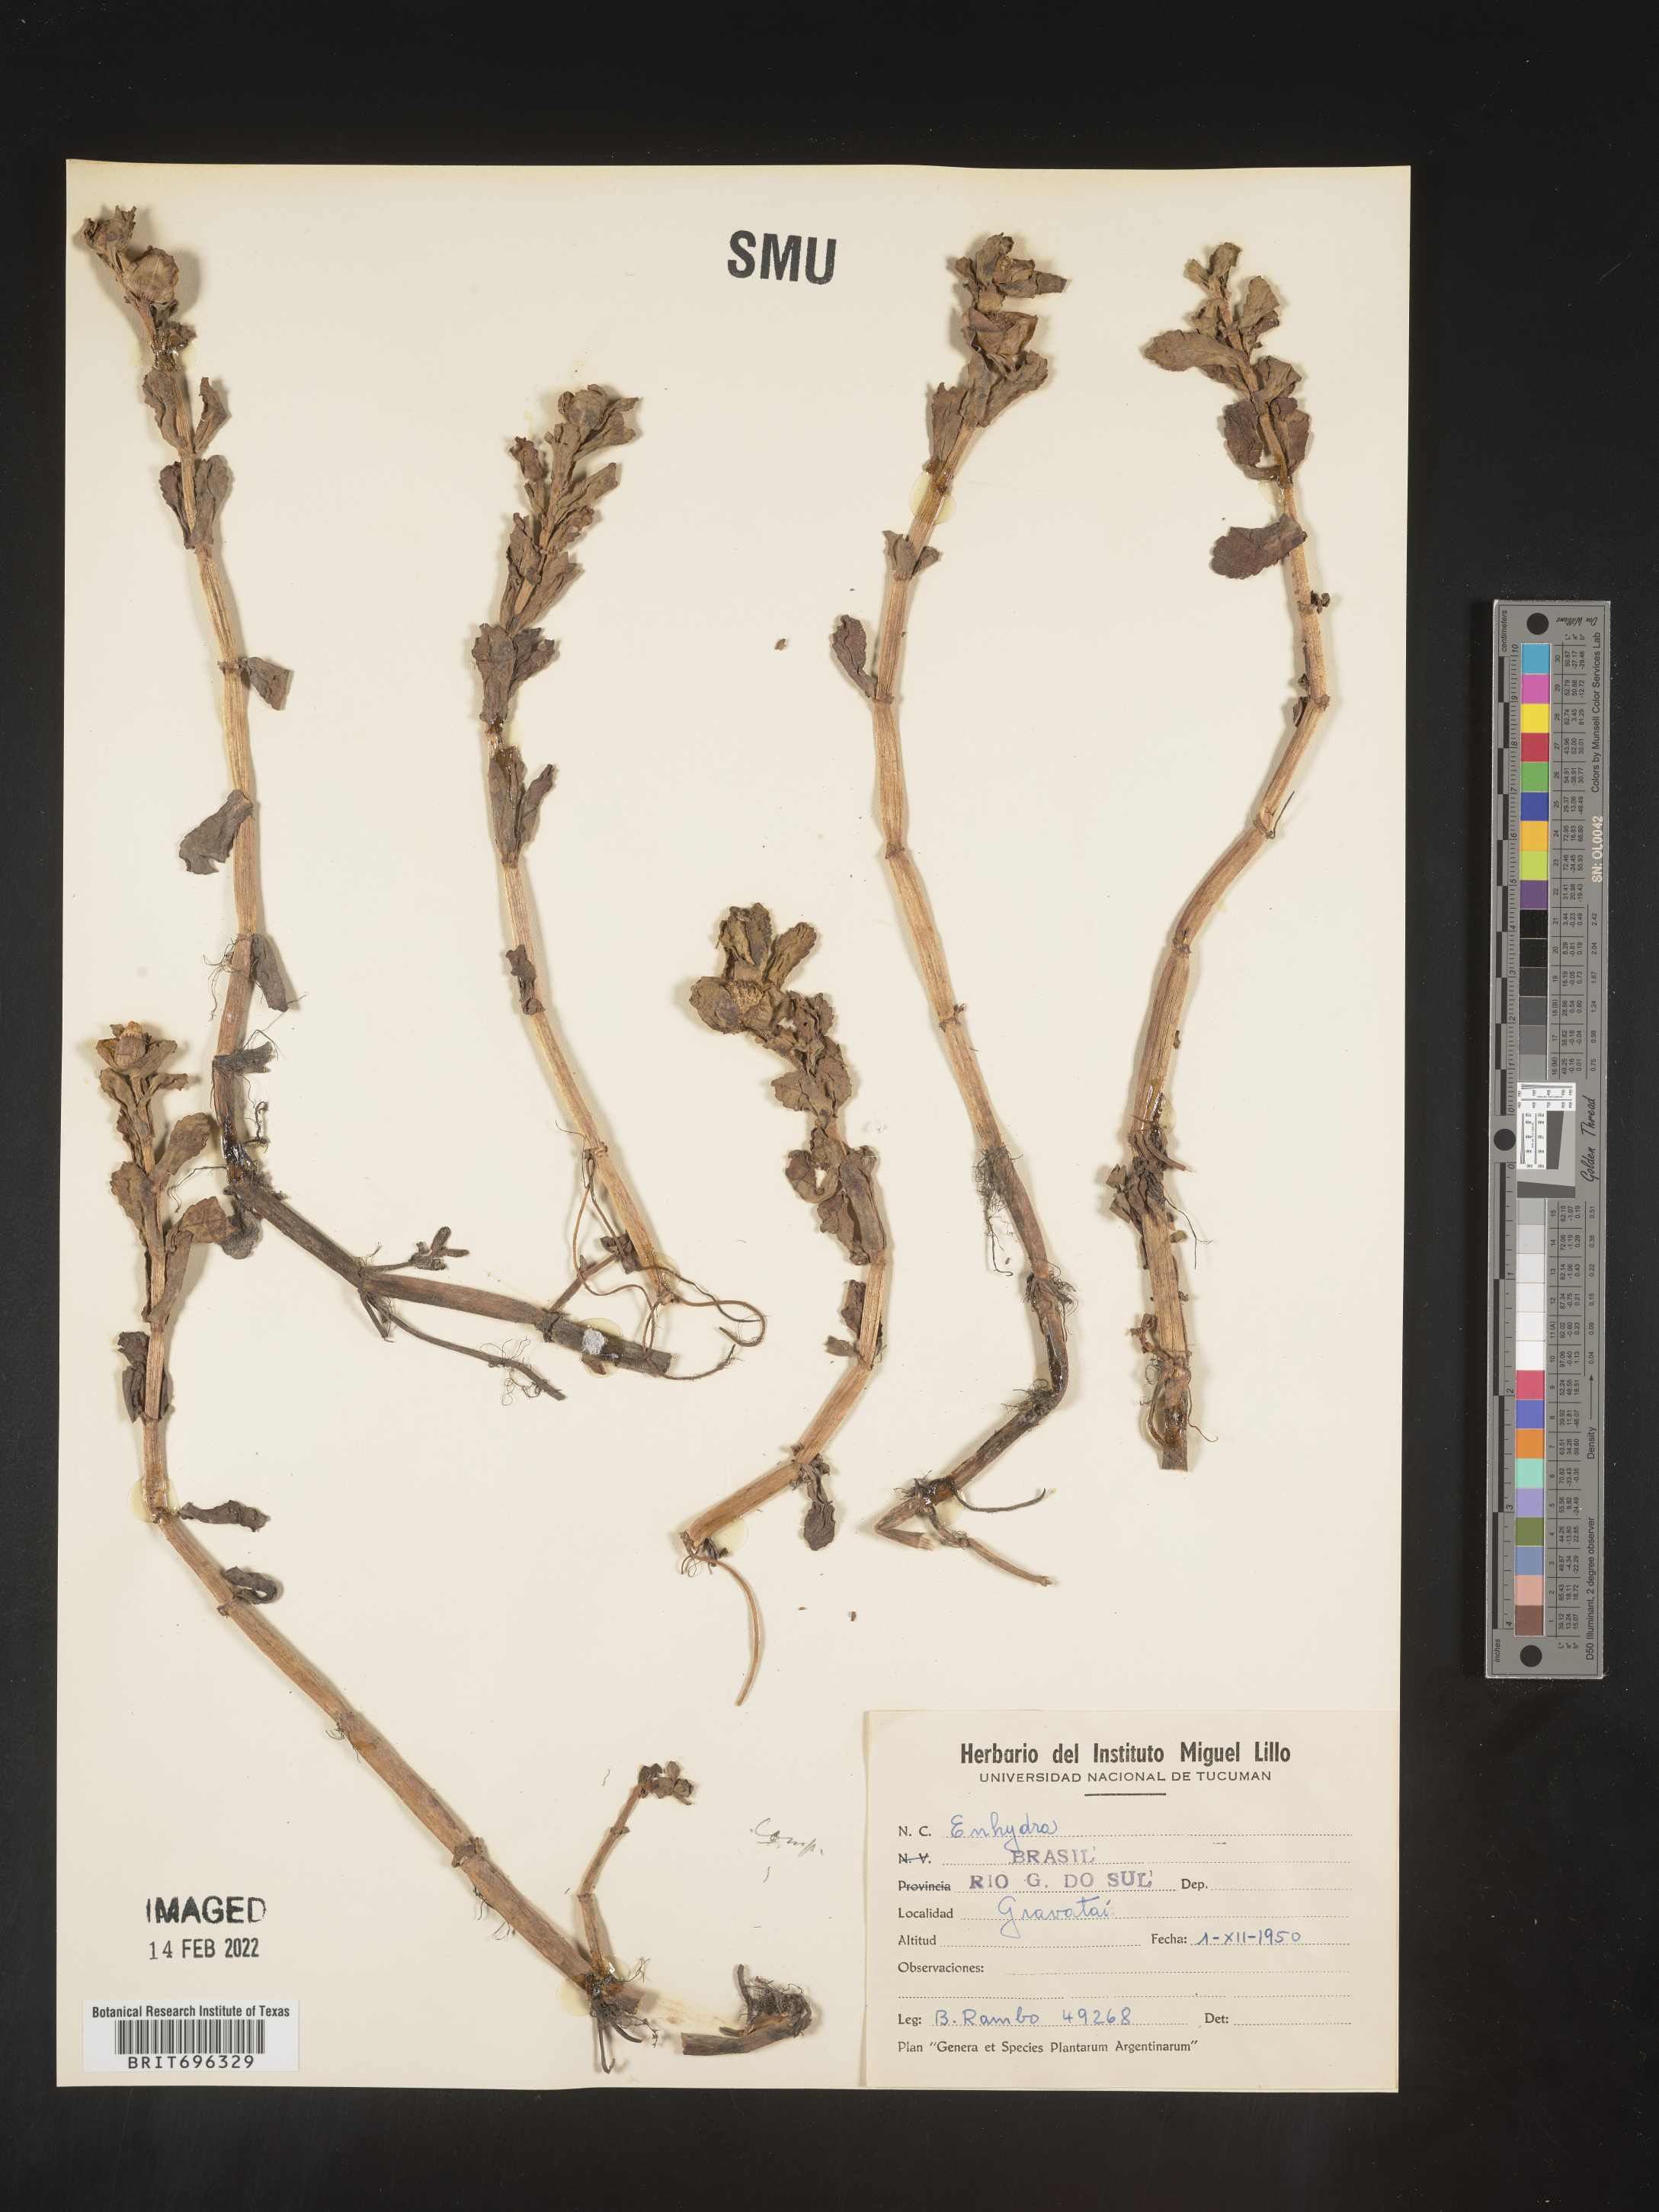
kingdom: Plantae
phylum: Tracheophyta
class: Magnoliopsida
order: Asterales
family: Asteraceae
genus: Enydra
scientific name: Enydra fluctuans
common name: Buffalo spinach
